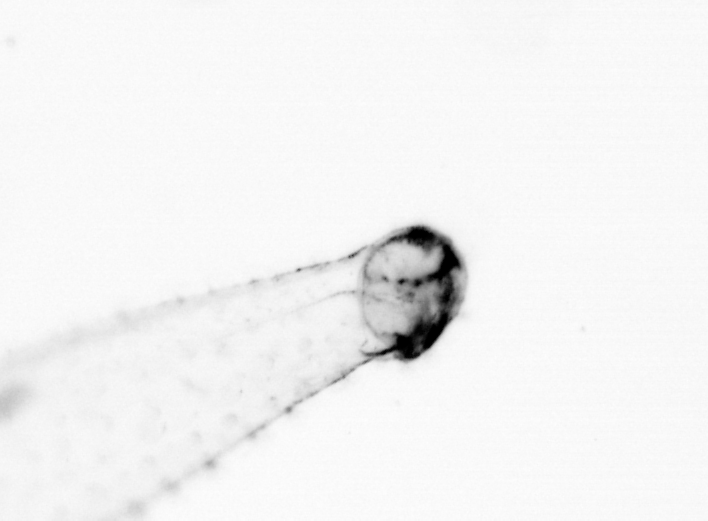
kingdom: Animalia
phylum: Chaetognatha
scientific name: Chaetognatha
